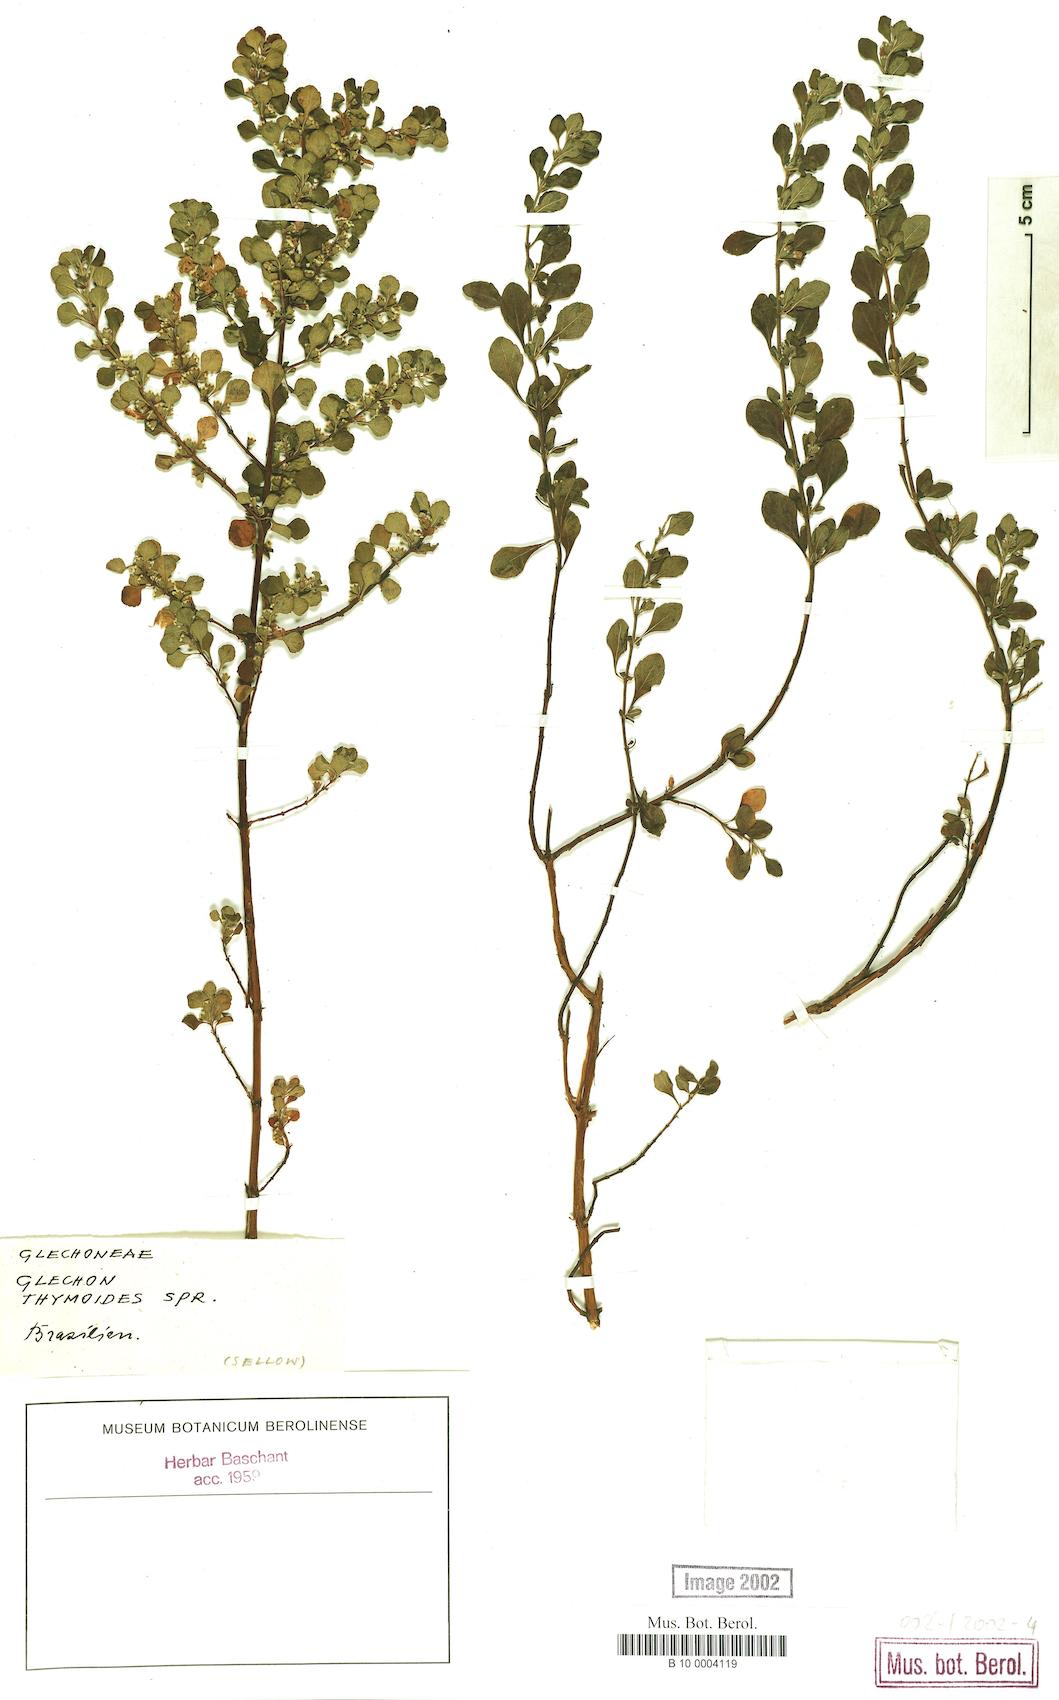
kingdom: Plantae
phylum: Tracheophyta
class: Magnoliopsida
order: Lamiales
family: Lamiaceae
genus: Glechon
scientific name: Glechon thymoides
